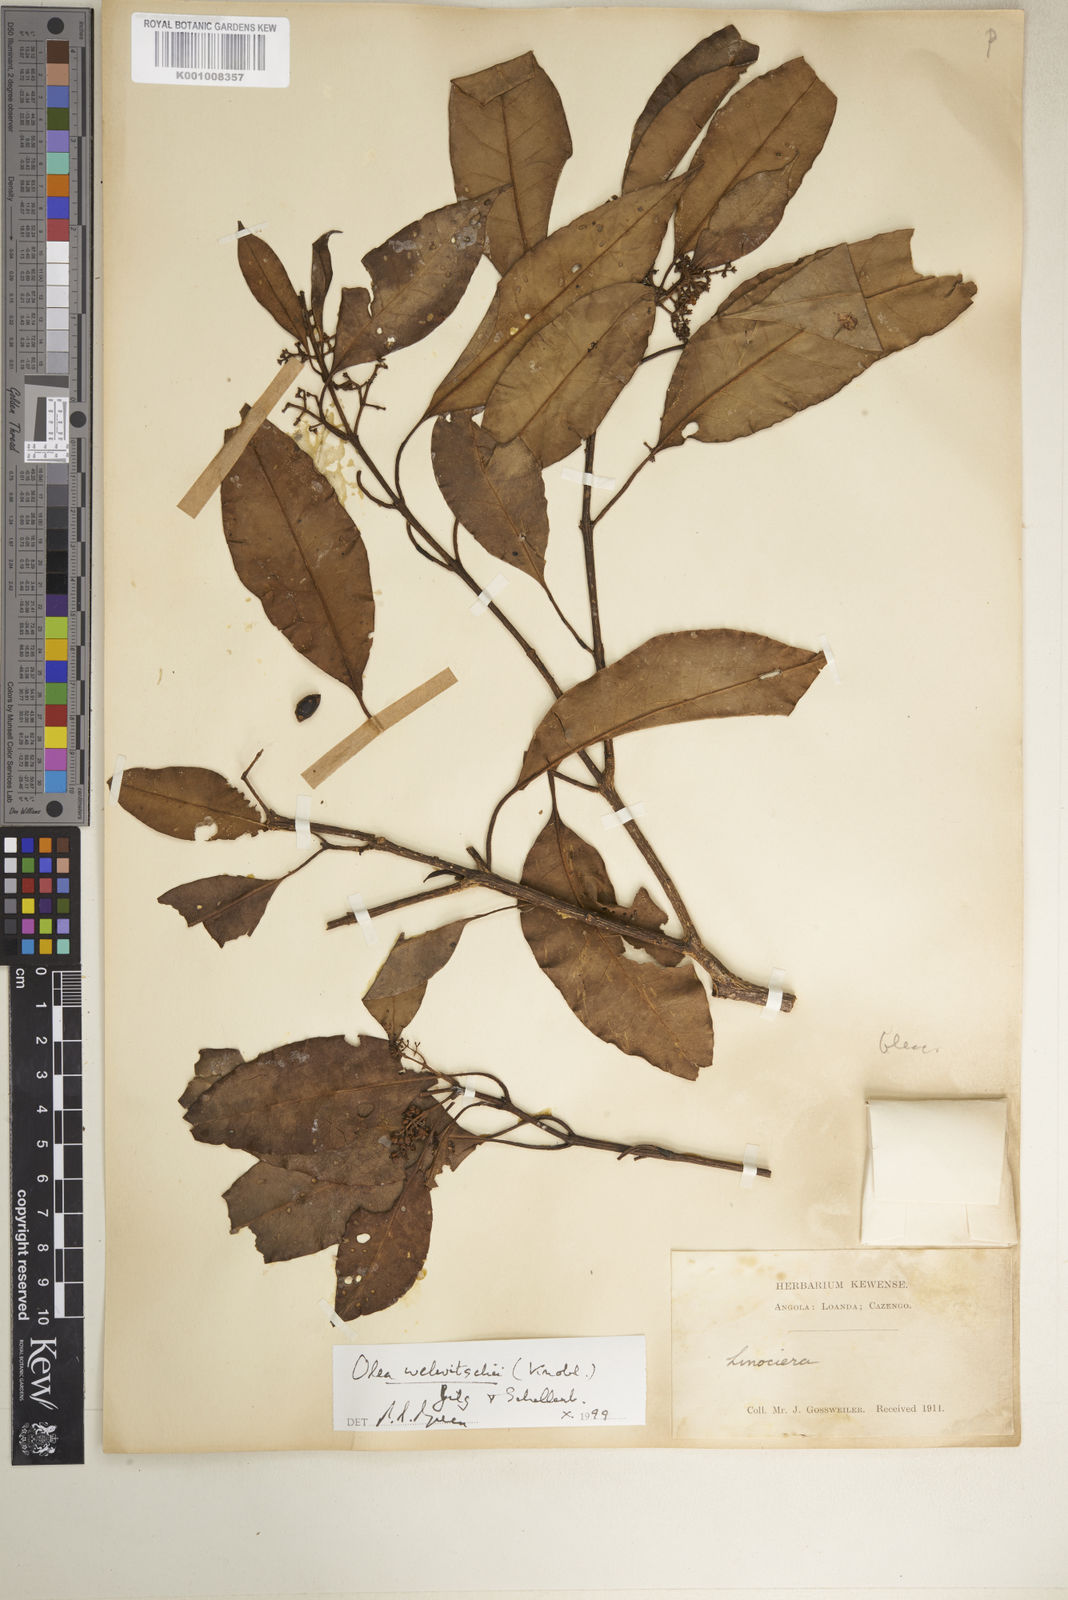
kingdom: Plantae
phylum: Tracheophyta
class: Magnoliopsida
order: Lamiales
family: Oleaceae
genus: Olea
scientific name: Olea welwitschii
